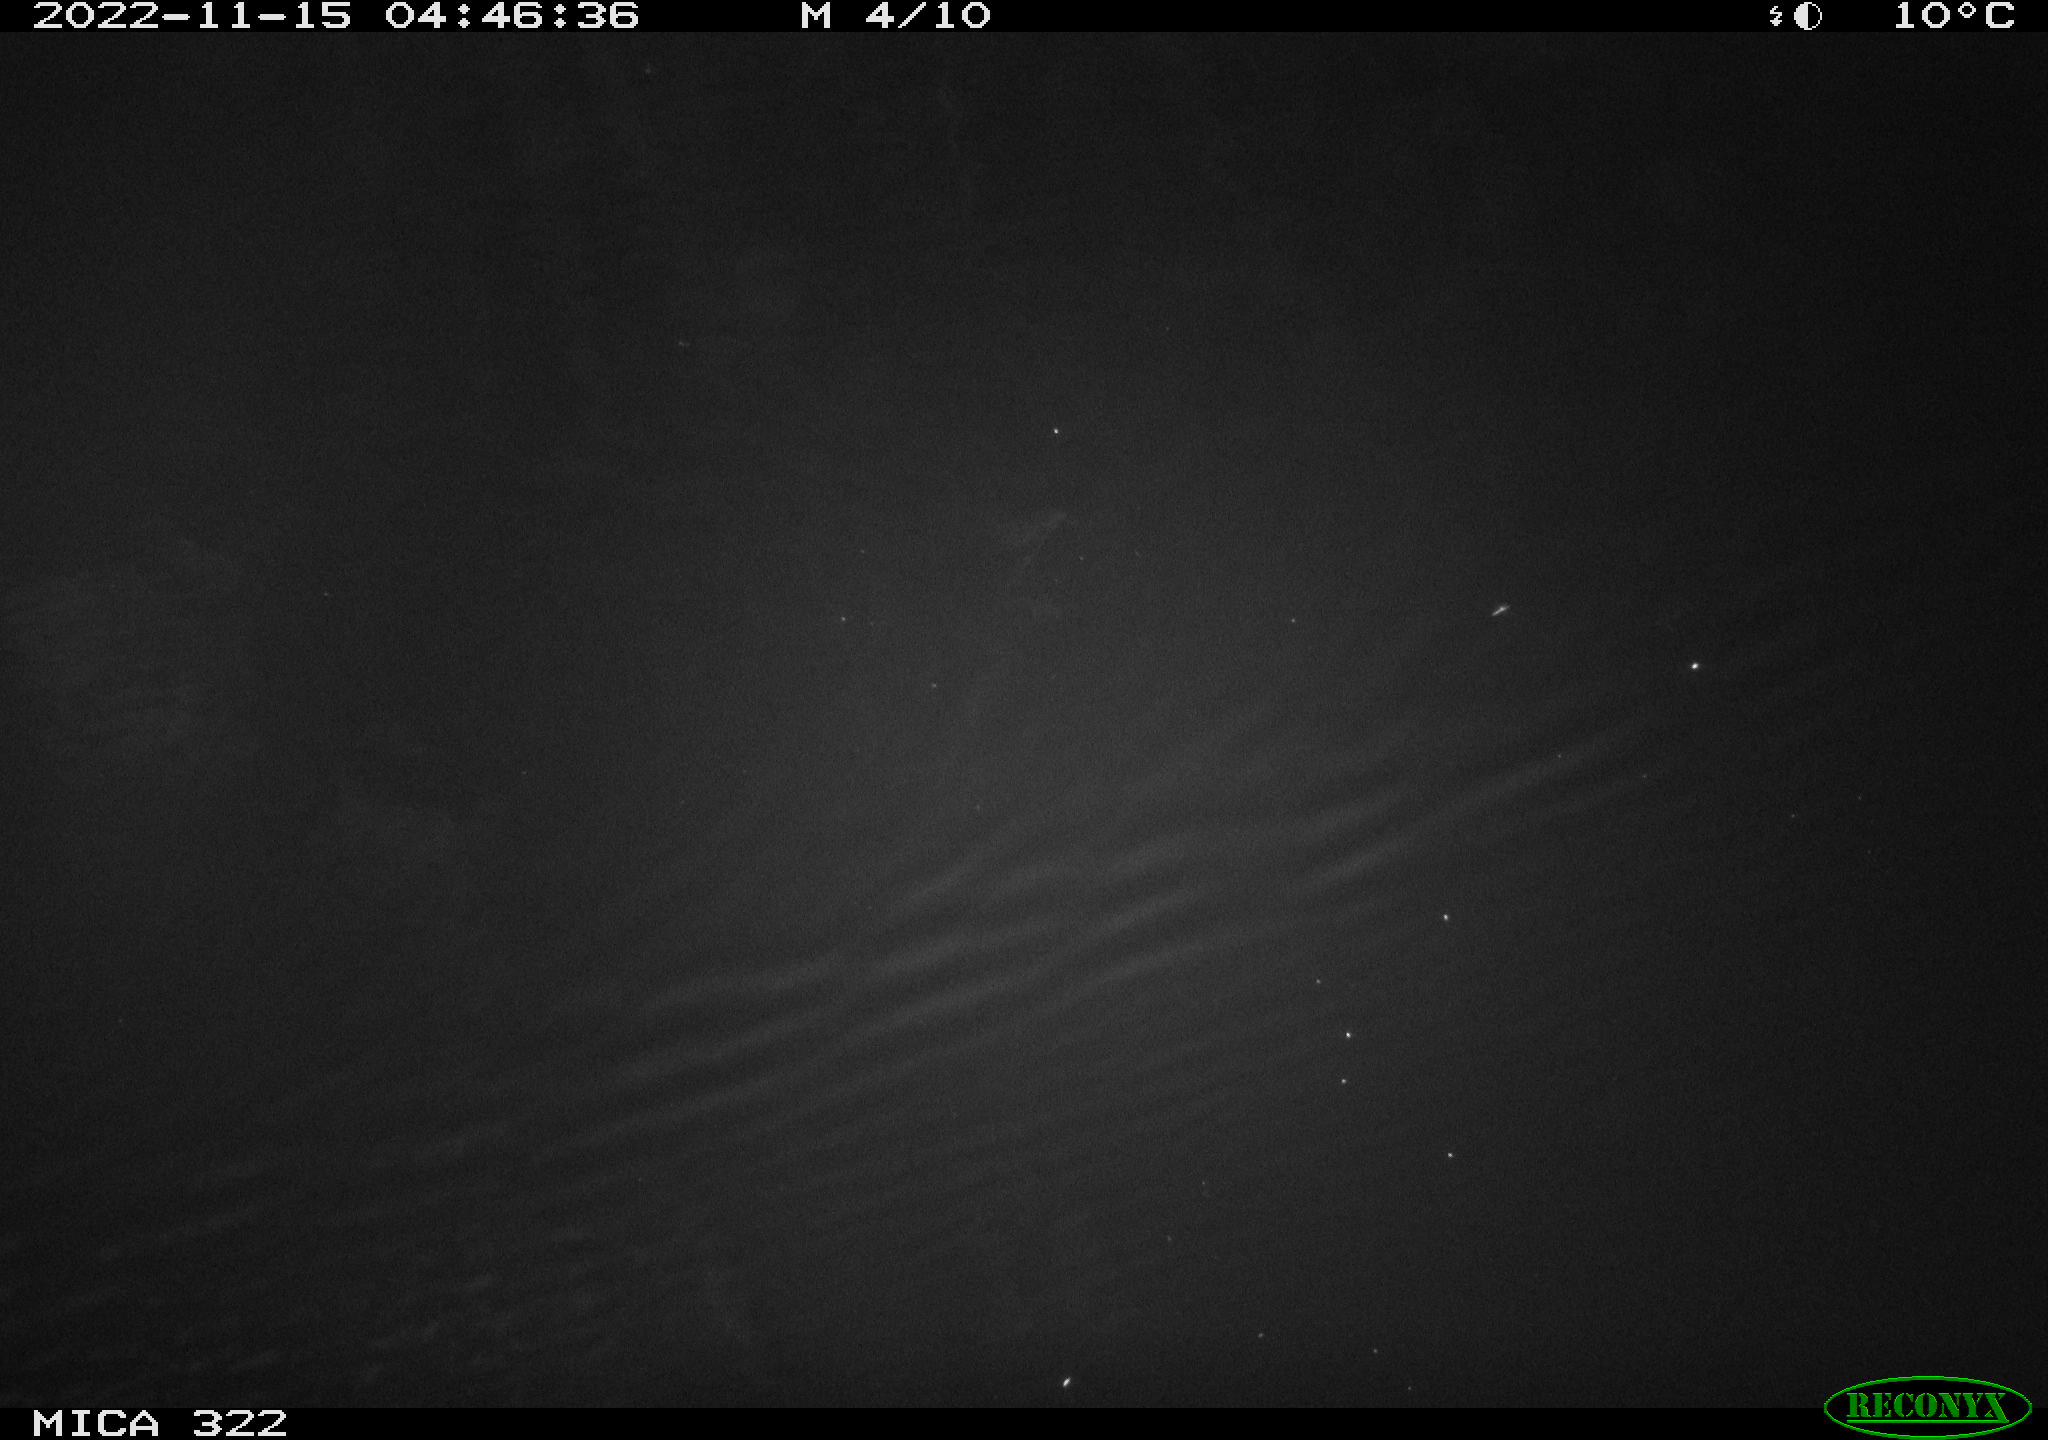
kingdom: Animalia
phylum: Chordata
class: Mammalia
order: Rodentia
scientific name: Rodentia
